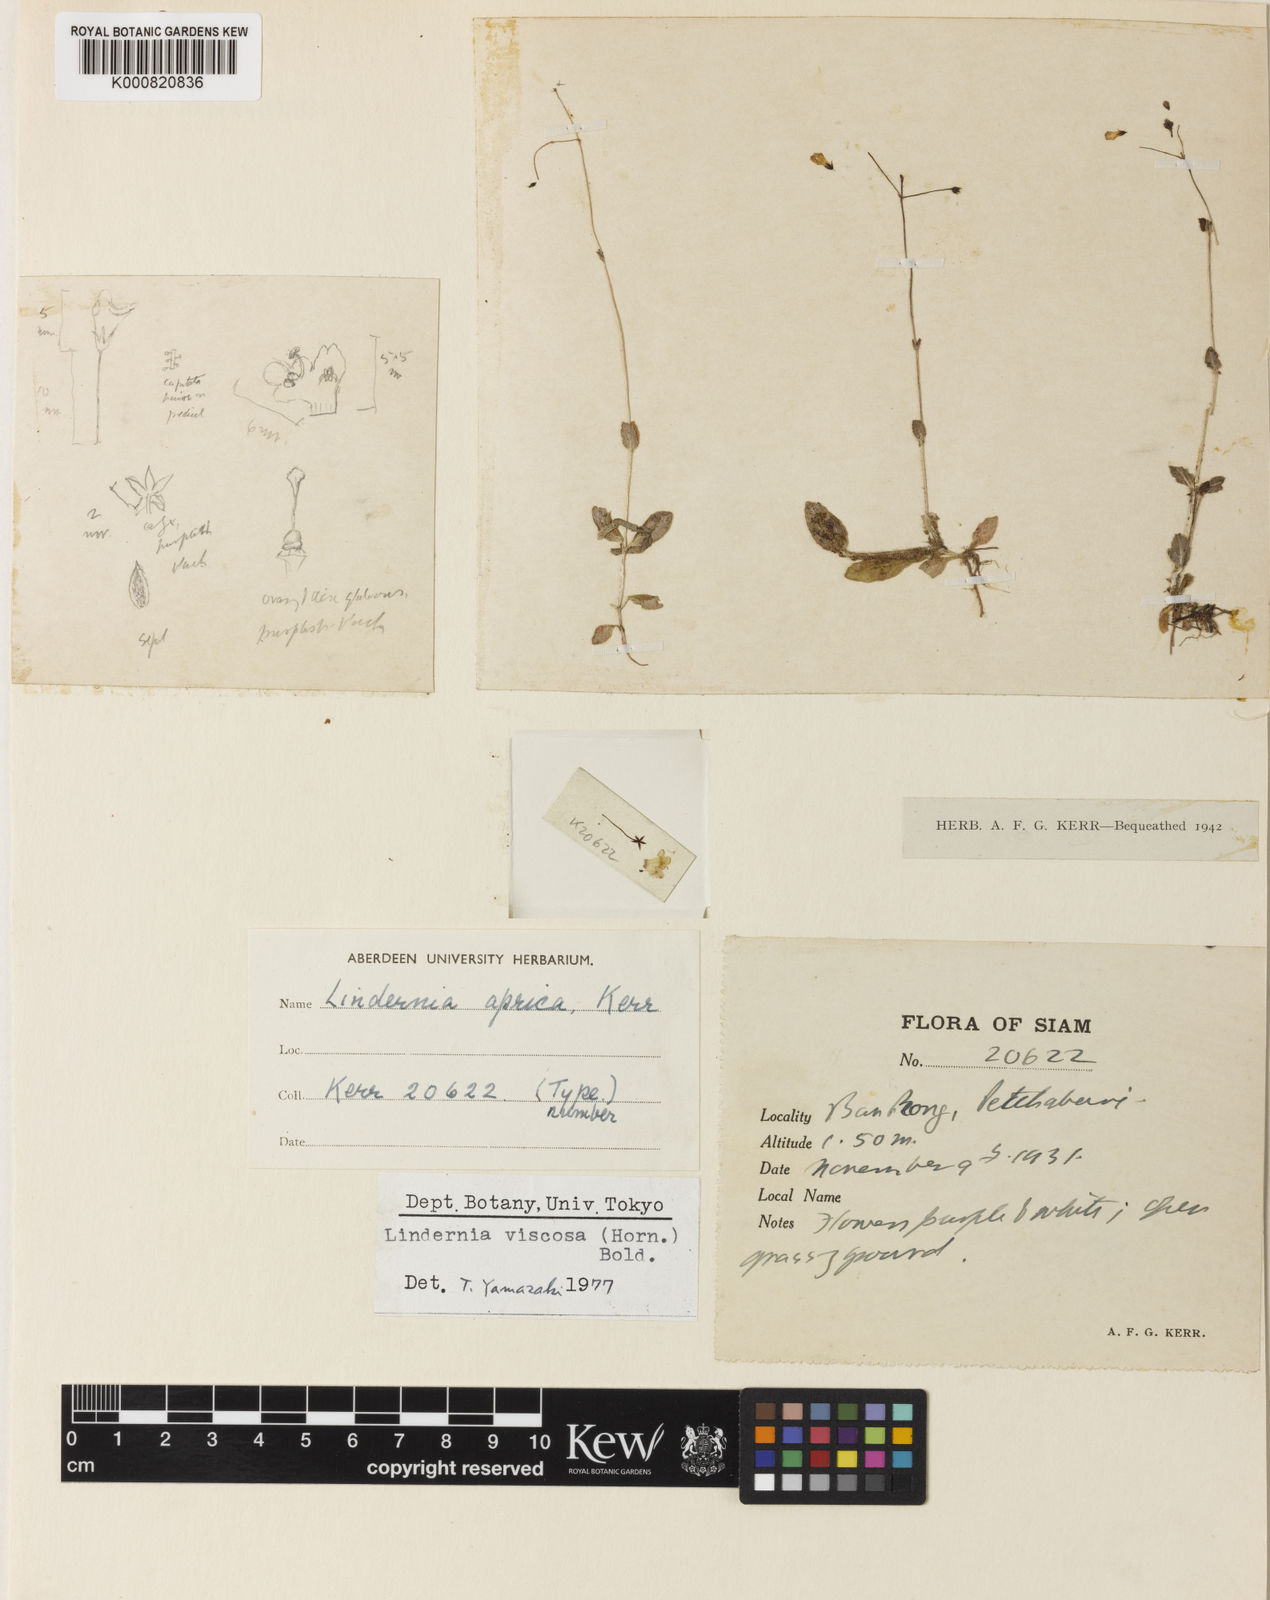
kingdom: Plantae
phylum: Tracheophyta
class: Magnoliopsida
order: Lamiales
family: Linderniaceae
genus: Lindernia
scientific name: Lindernia
